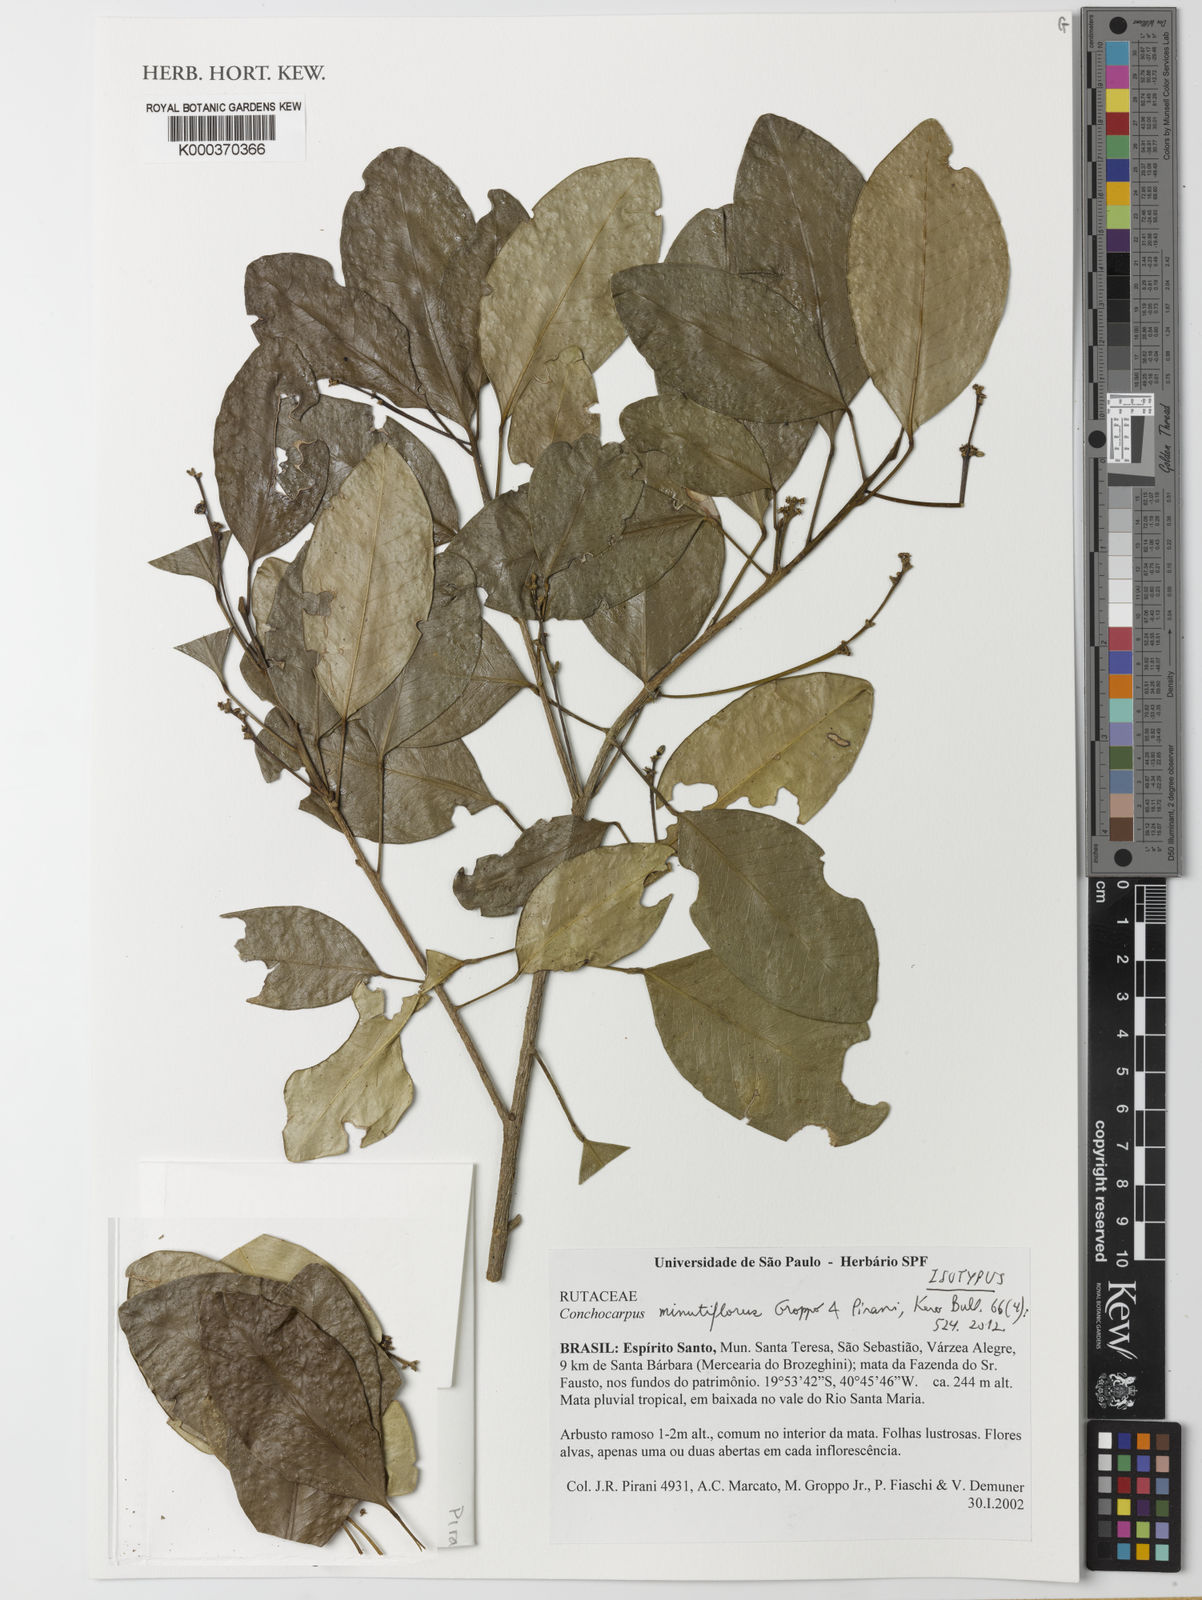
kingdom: Plantae
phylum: Tracheophyta
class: Magnoliopsida
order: Sapindales
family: Rutaceae
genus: Conchocarpus
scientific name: Conchocarpus minutiflorus
